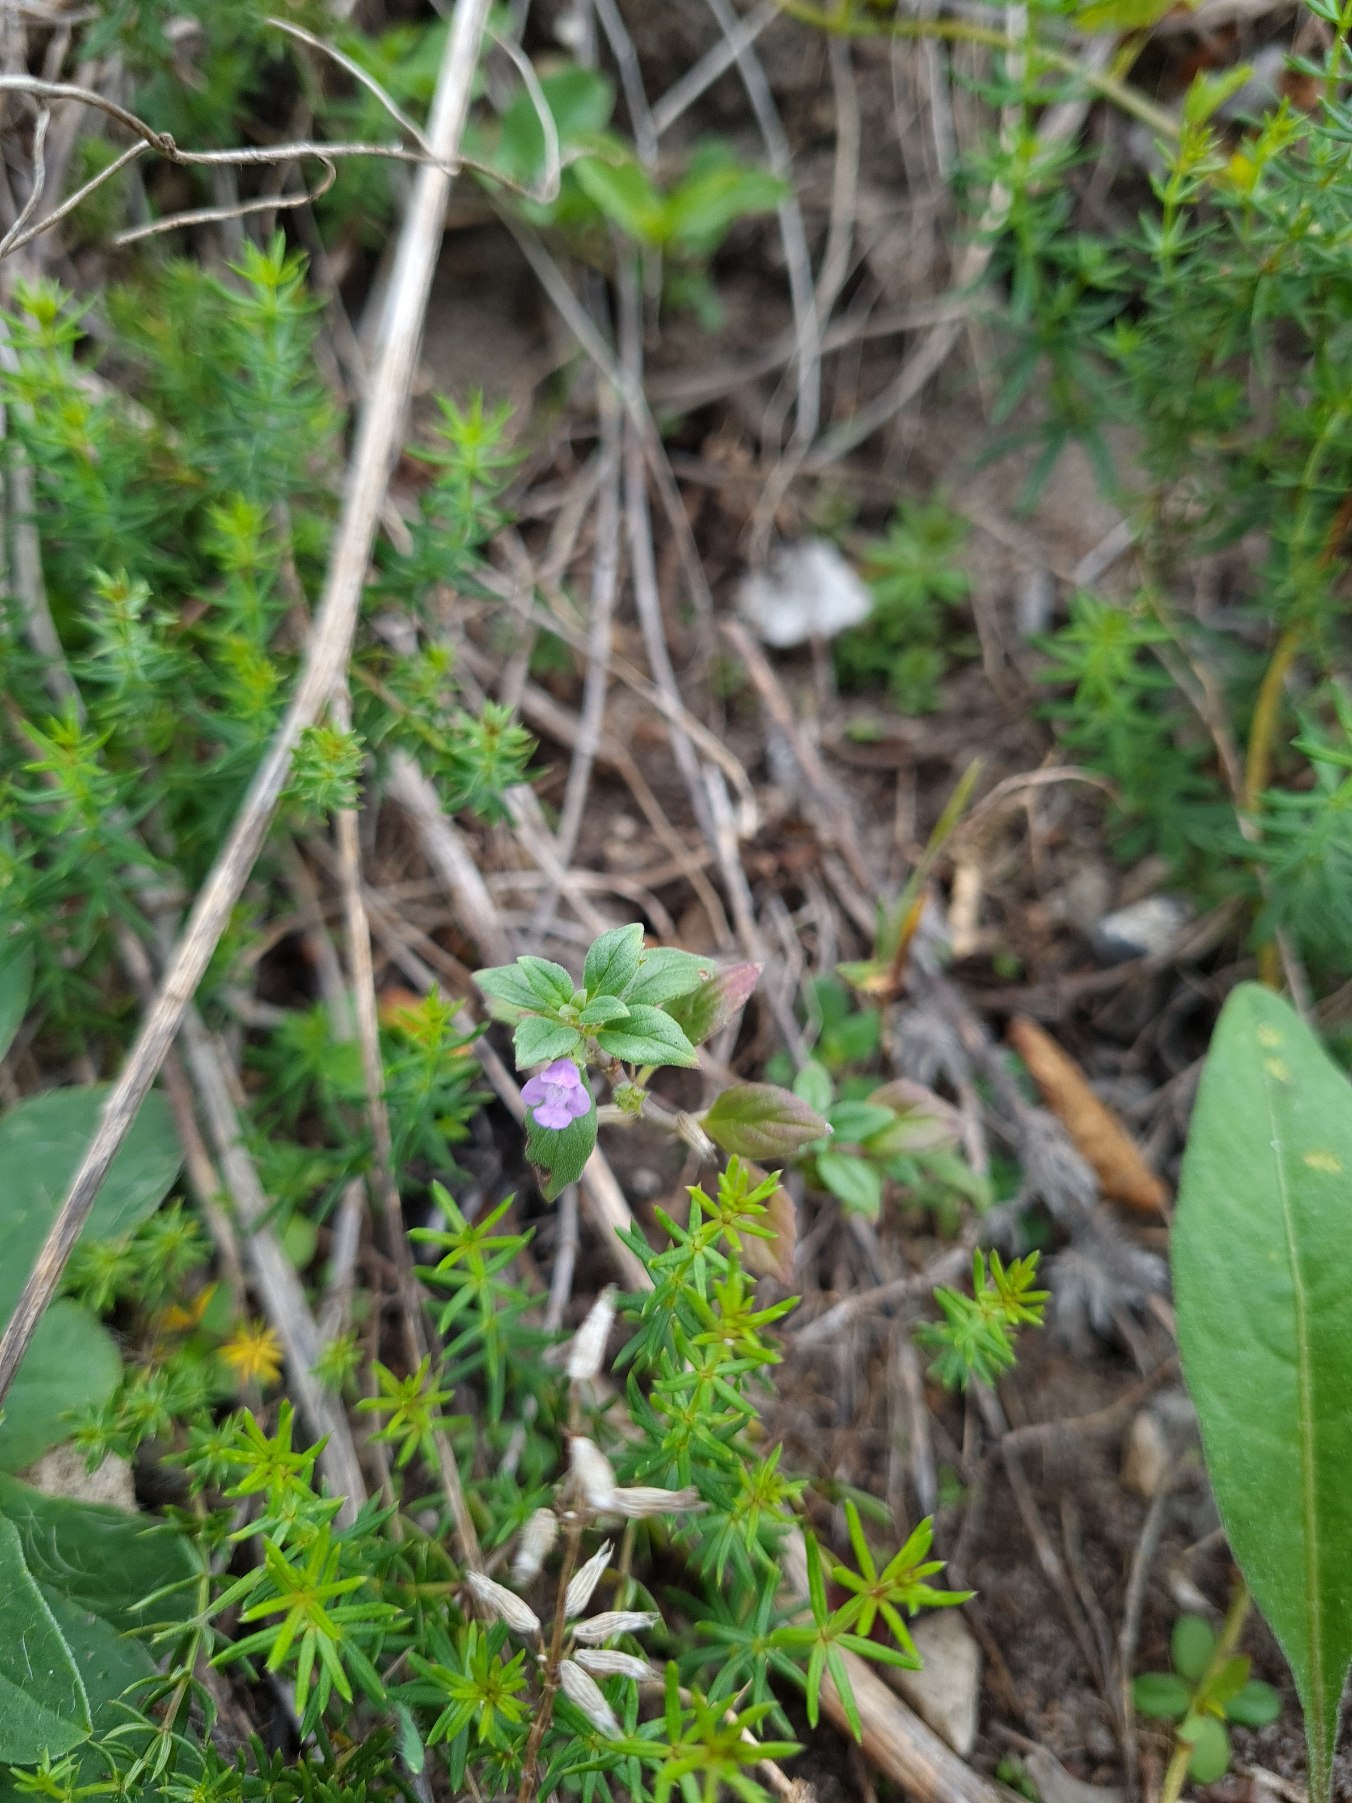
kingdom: Plantae
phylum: Tracheophyta
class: Magnoliopsida
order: Lamiales
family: Lamiaceae
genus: Clinopodium
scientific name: Clinopodium acinos
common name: Voldtimian
